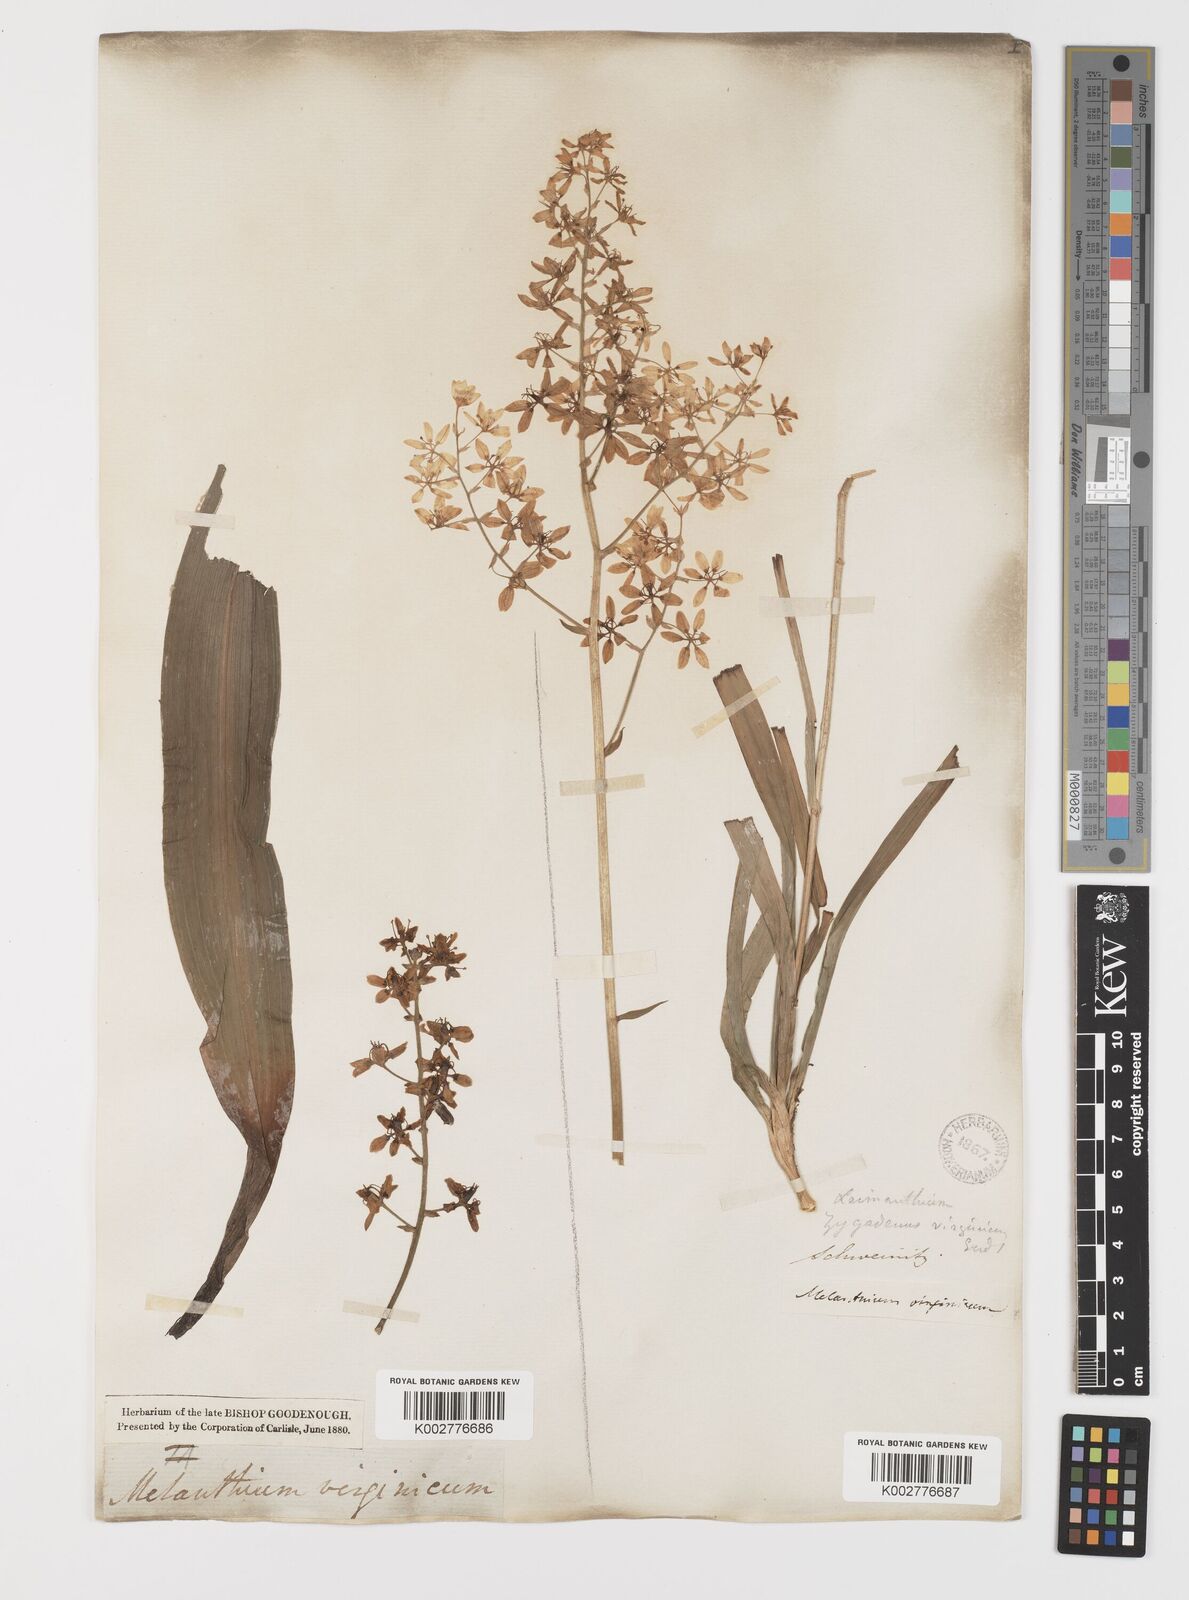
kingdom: Plantae
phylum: Tracheophyta
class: Liliopsida
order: Liliales
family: Melanthiaceae
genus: Melanthium
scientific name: Melanthium virginicum
